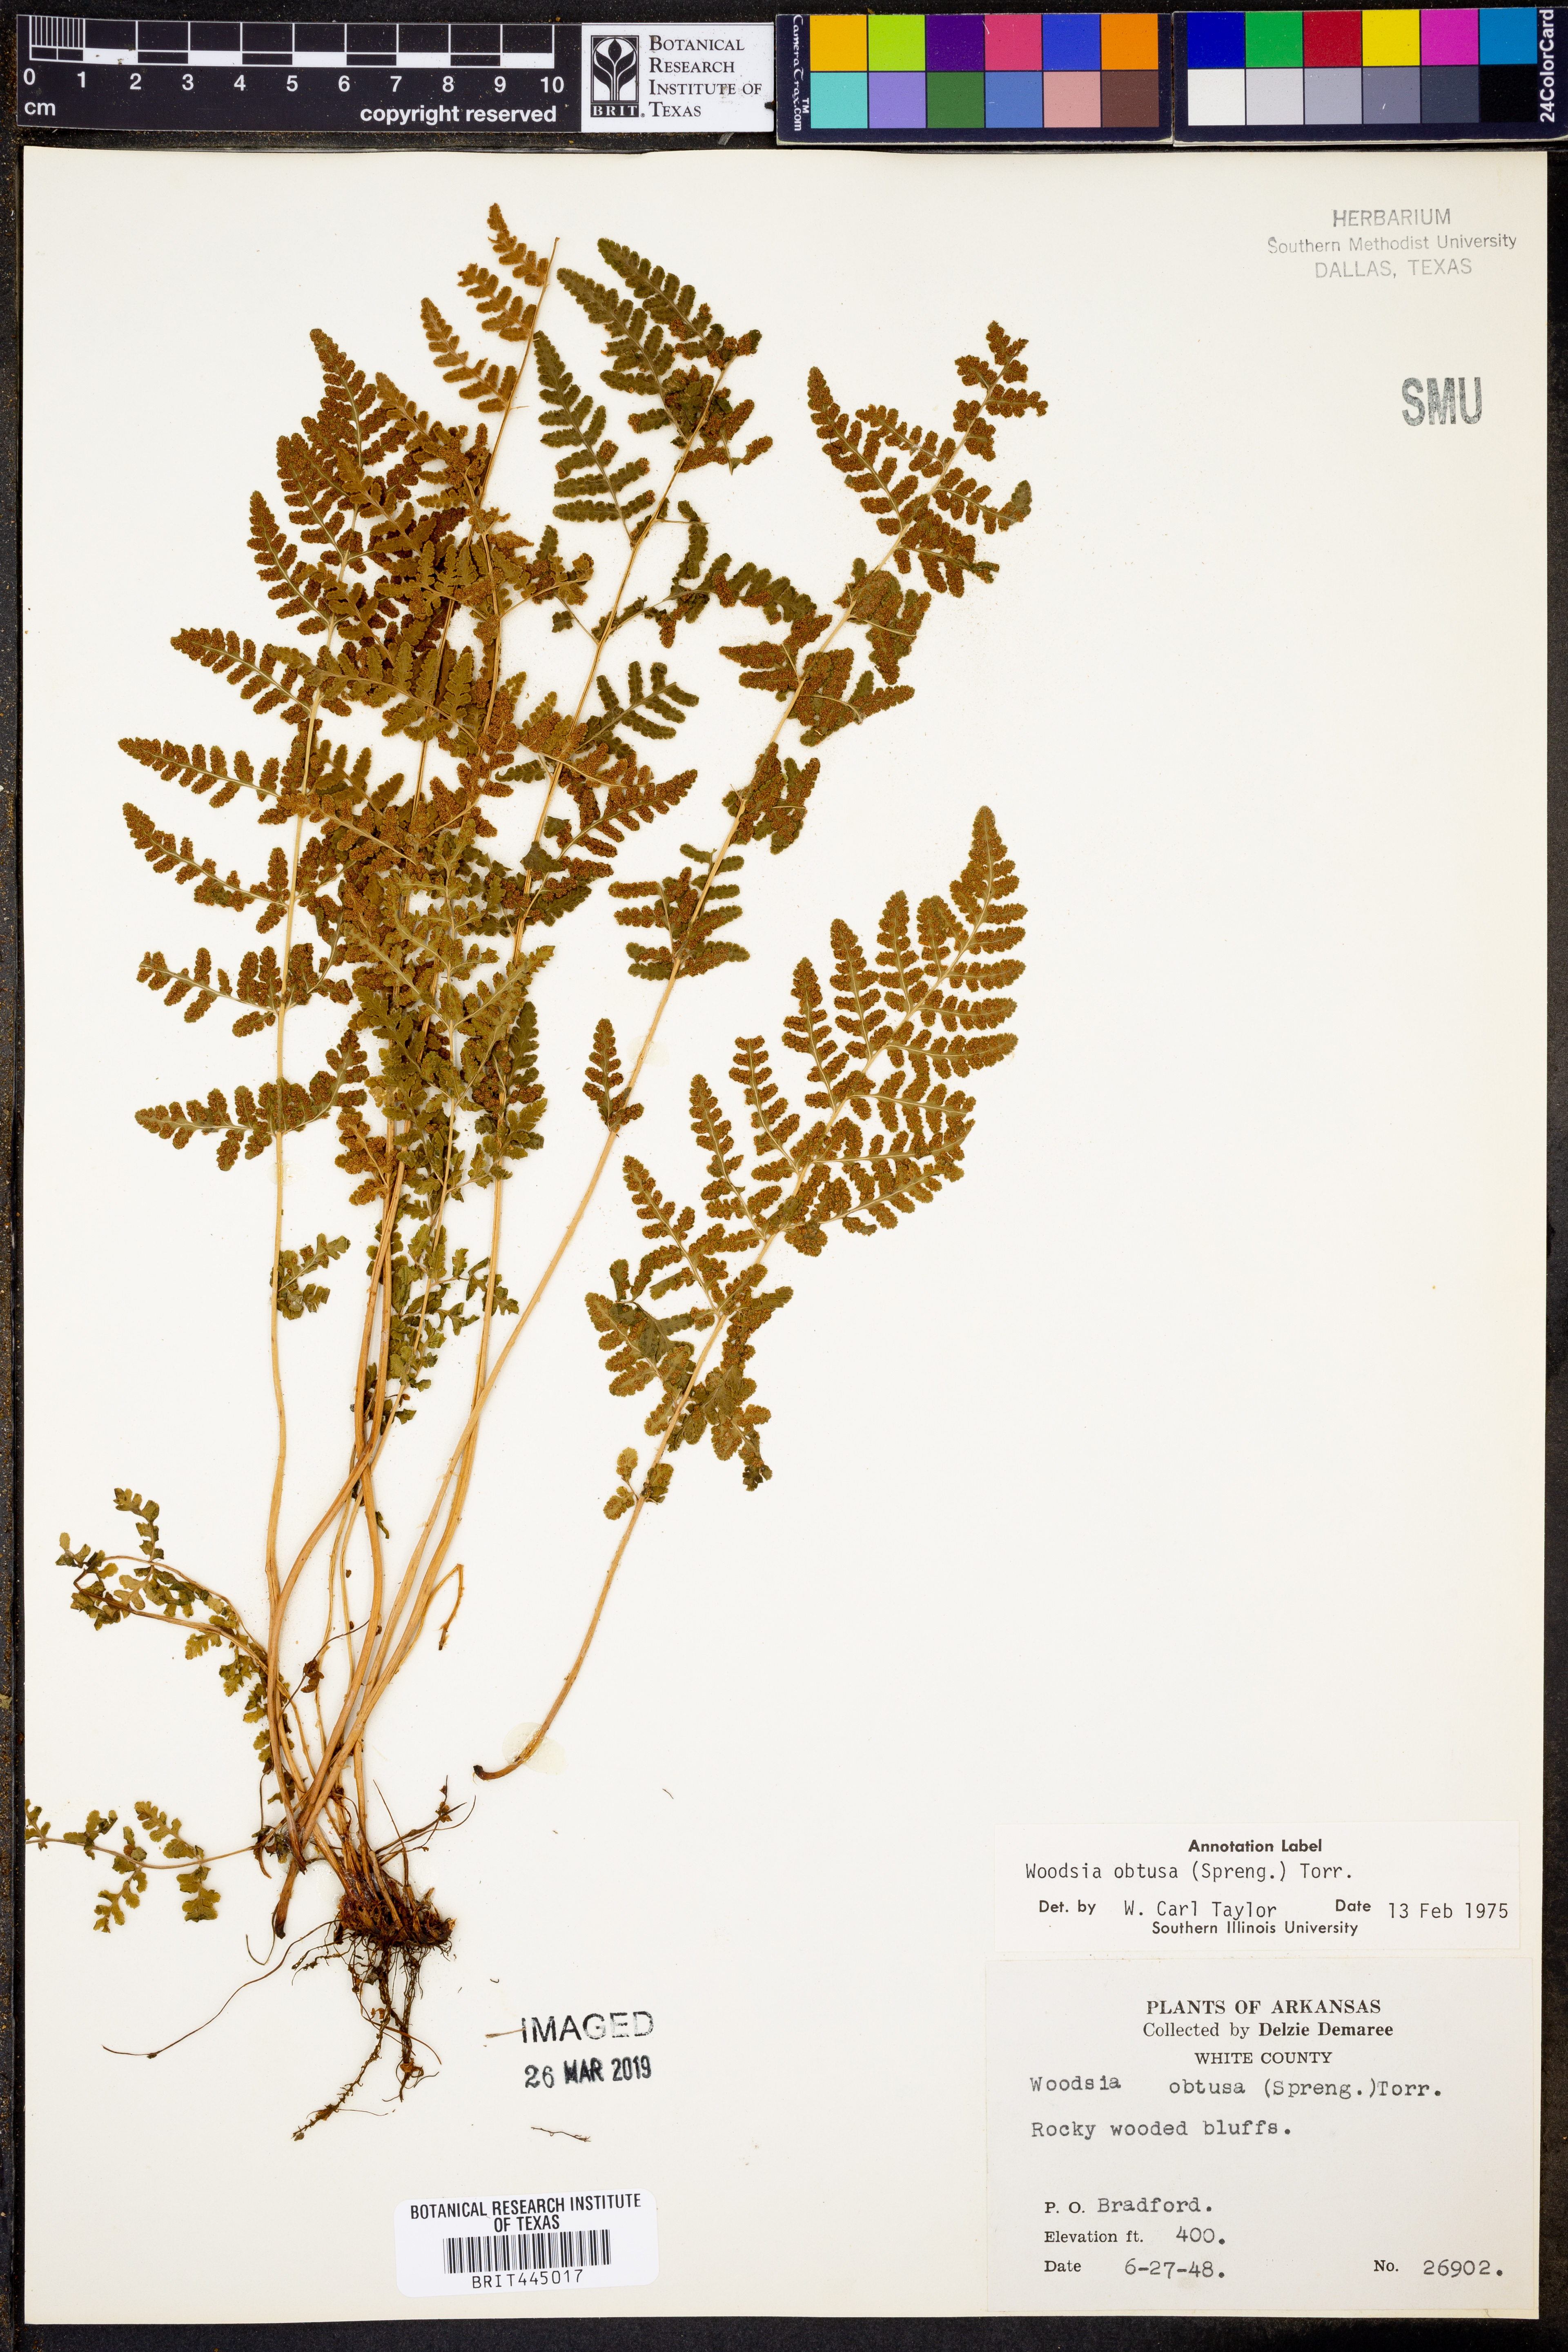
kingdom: Plantae
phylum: Tracheophyta
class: Polypodiopsida
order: Polypodiales
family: Woodsiaceae
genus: Physematium
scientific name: Physematium obtusum
